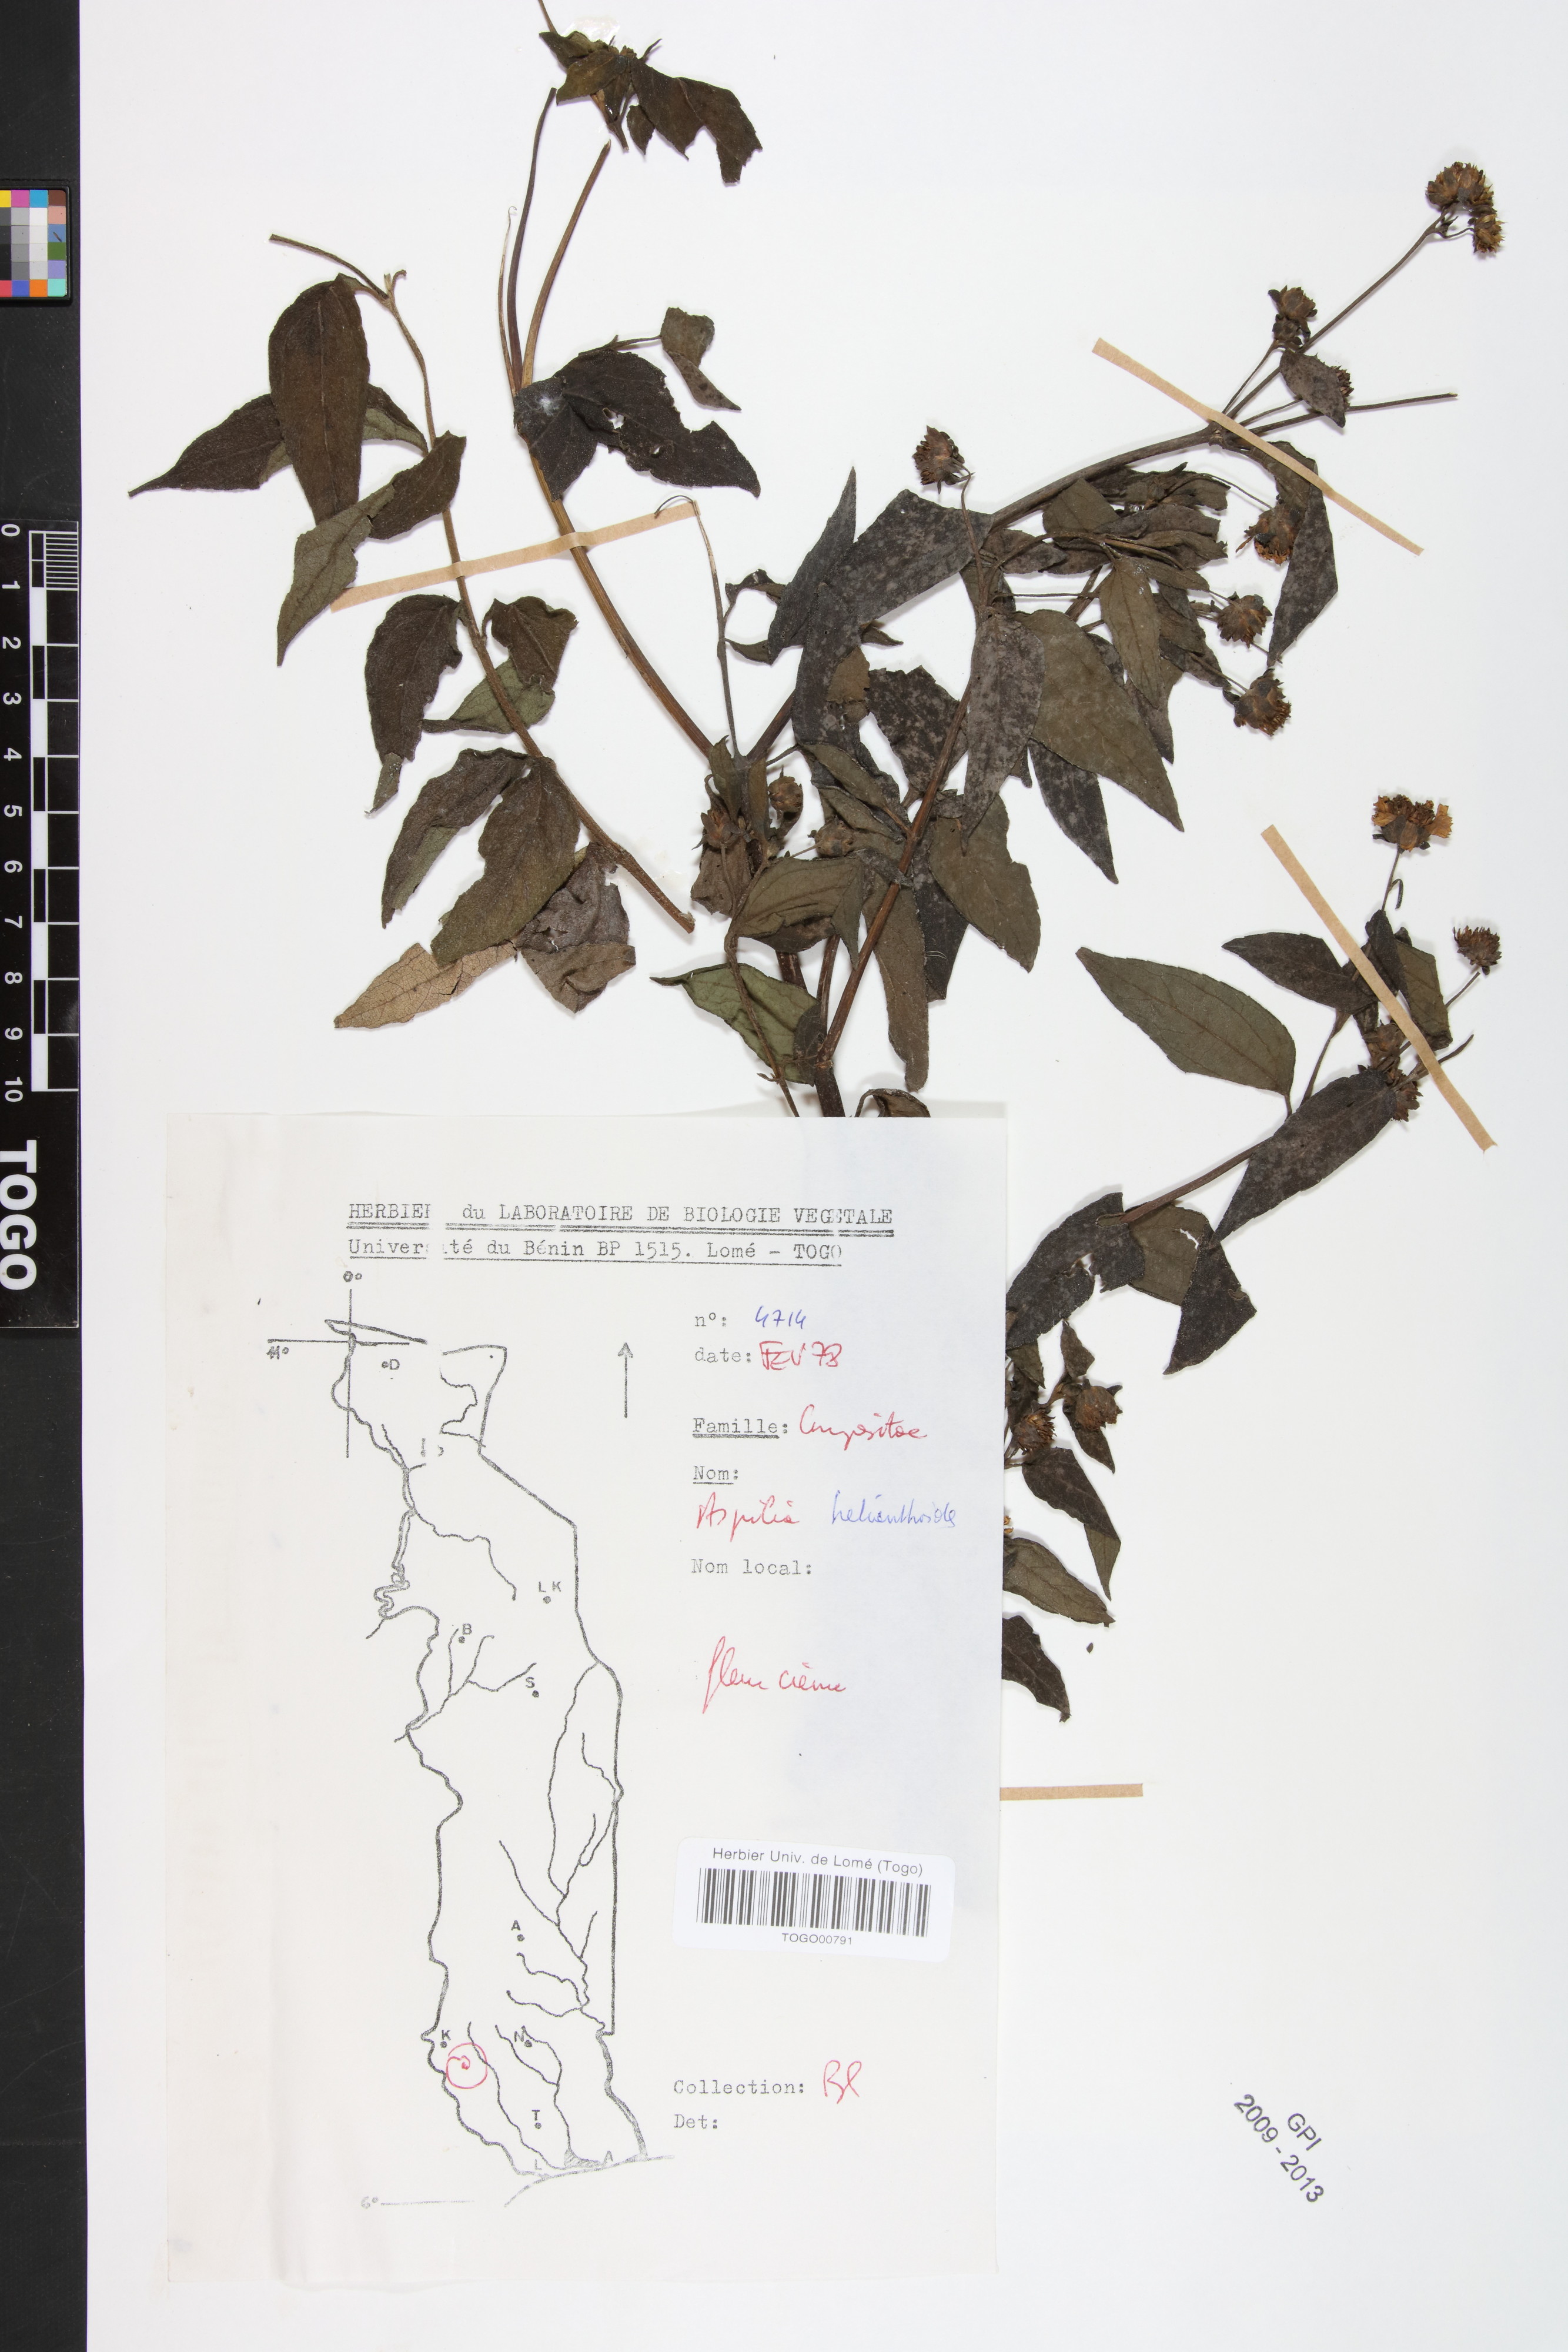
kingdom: Plantae
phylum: Tracheophyta
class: Magnoliopsida
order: Asterales
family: Asteraceae
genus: Aspilia
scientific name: Aspilia helianthoides
